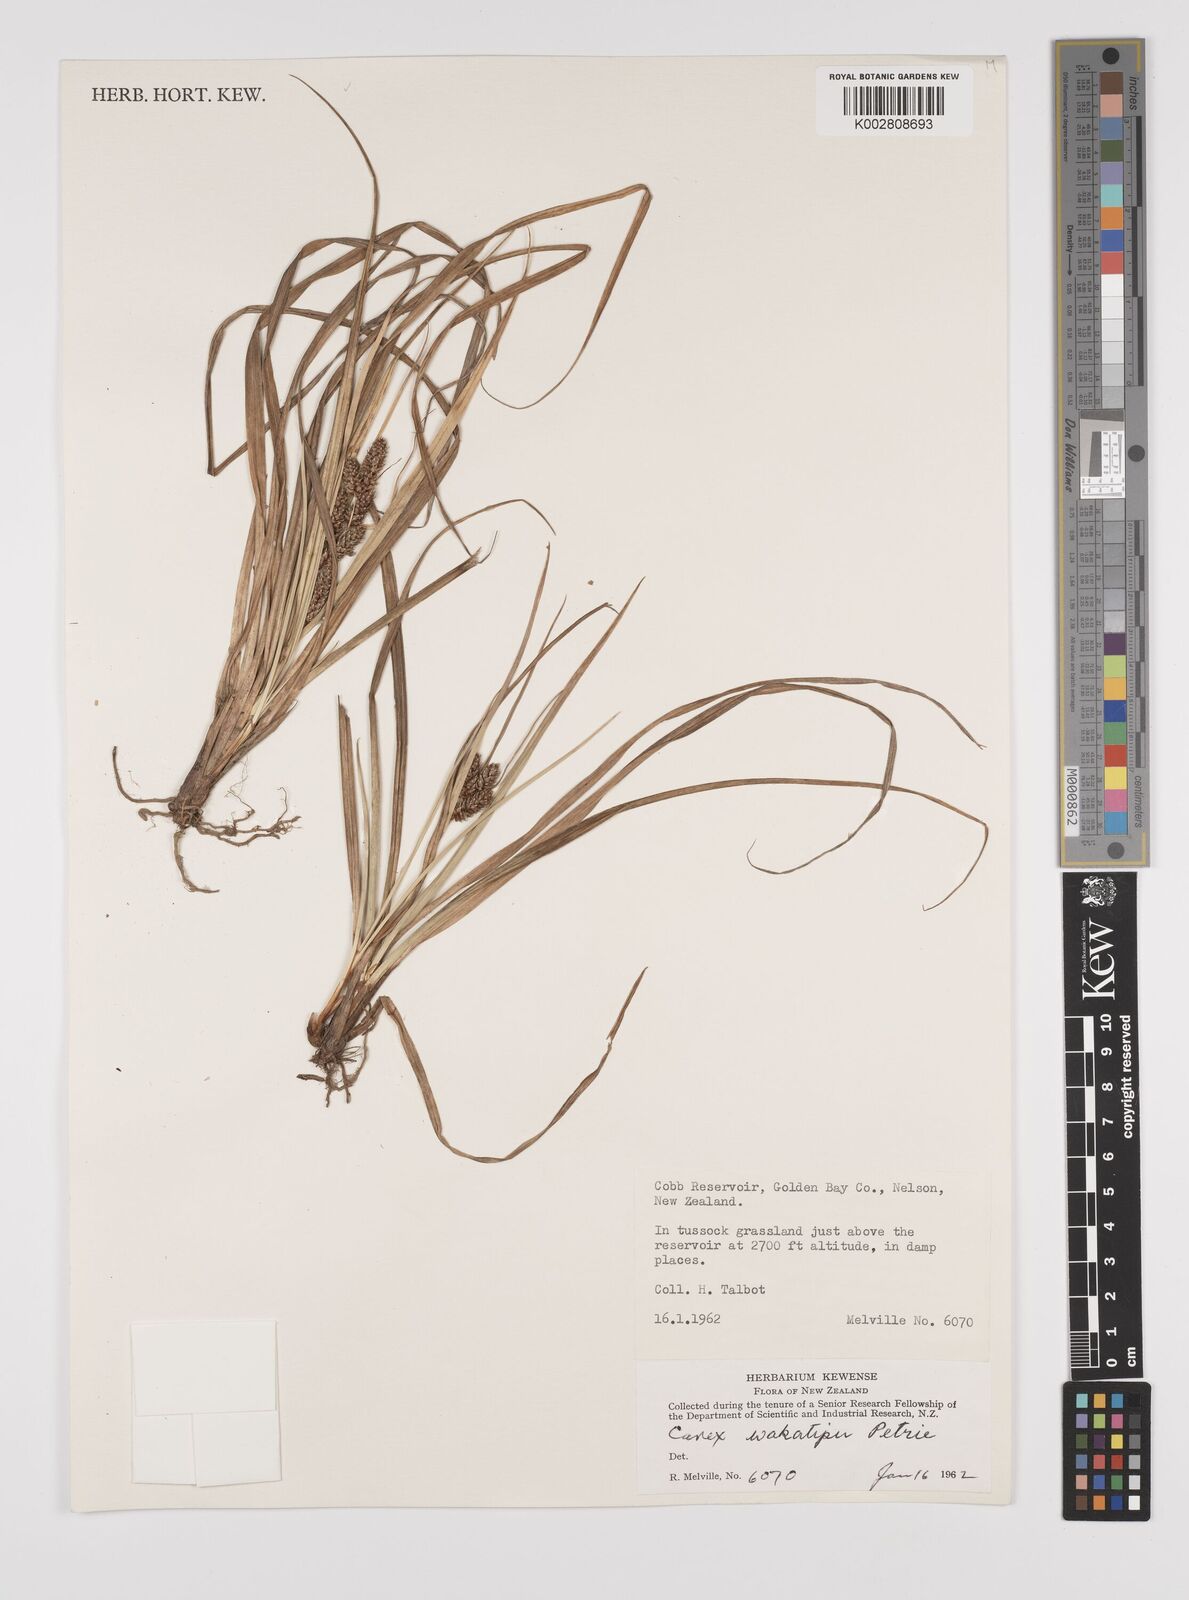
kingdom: Plantae
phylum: Tracheophyta
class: Liliopsida
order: Poales
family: Cyperaceae
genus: Carex
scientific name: Carex wakatipu
